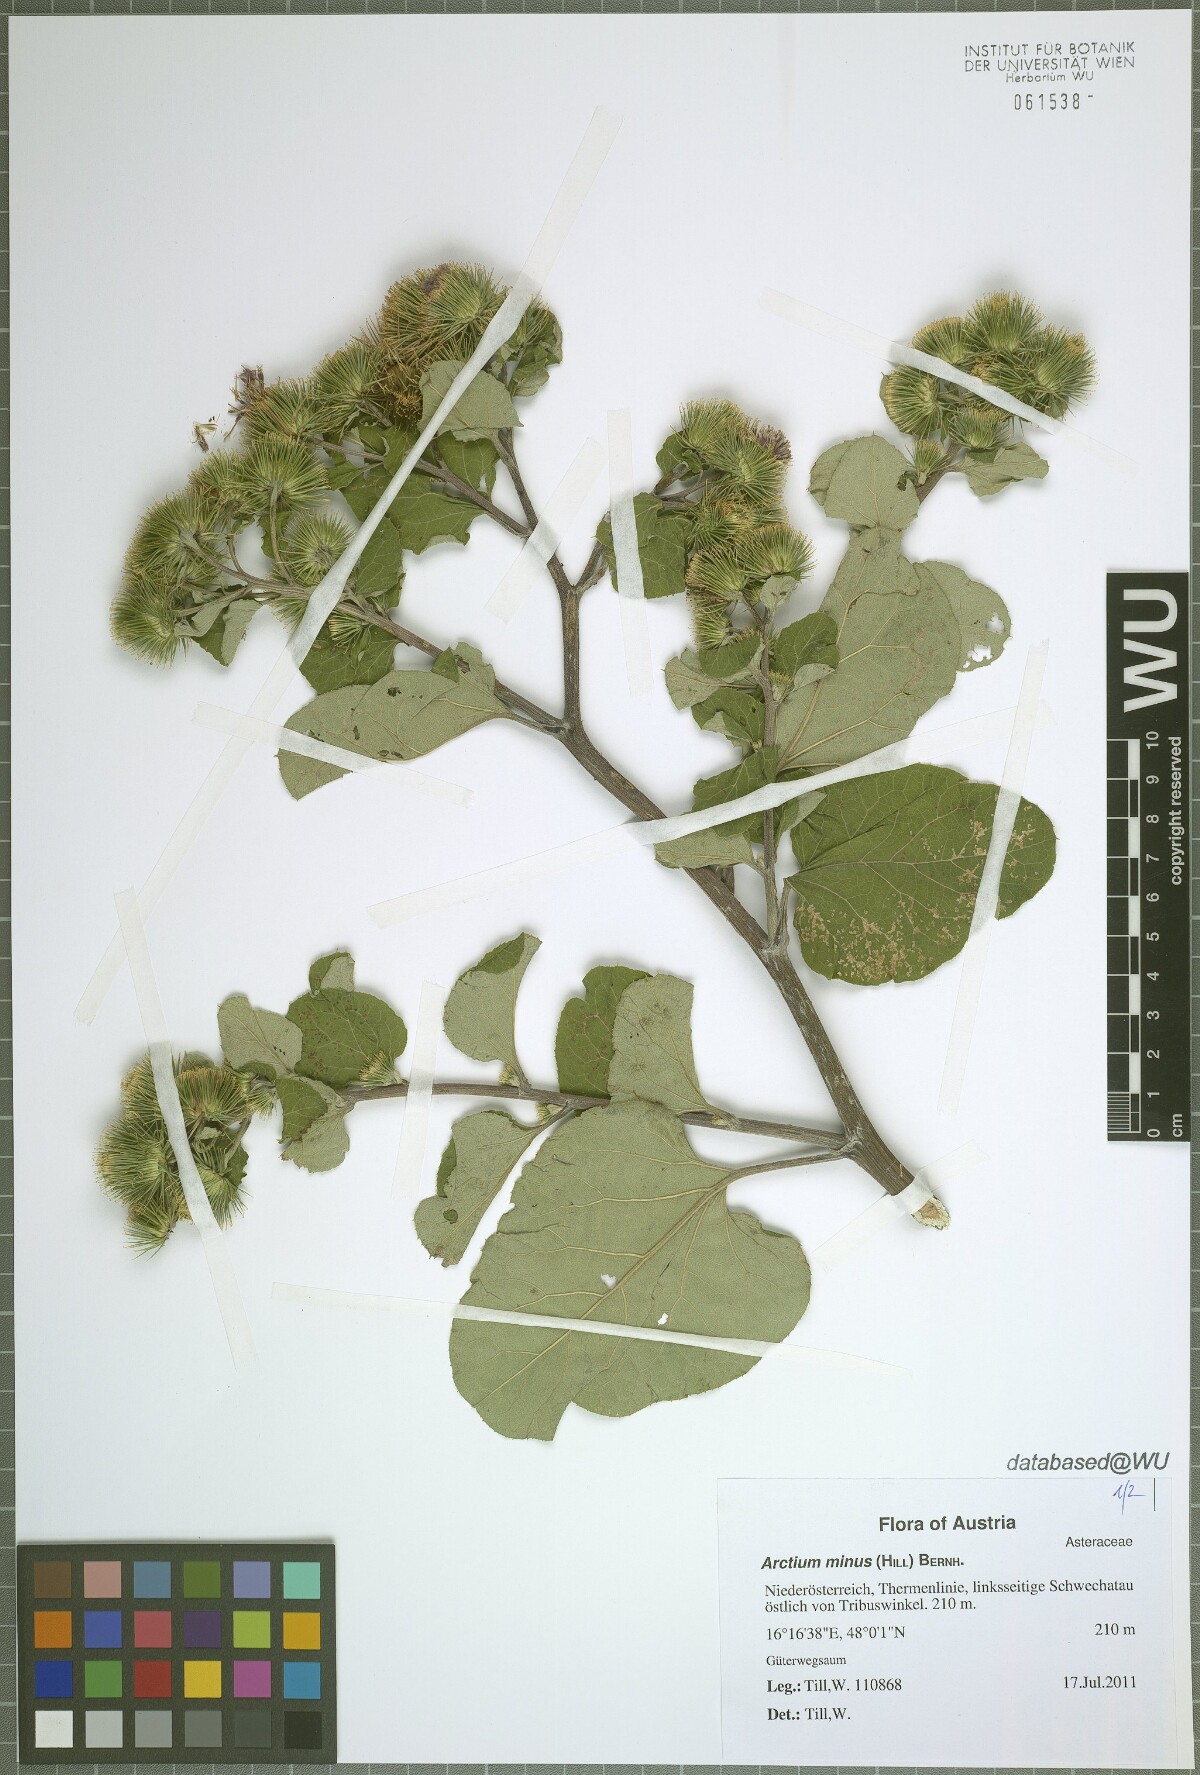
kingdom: Plantae
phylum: Tracheophyta
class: Magnoliopsida
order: Asterales
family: Asteraceae
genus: Arctium
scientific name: Arctium minus
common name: Lesser burdock
